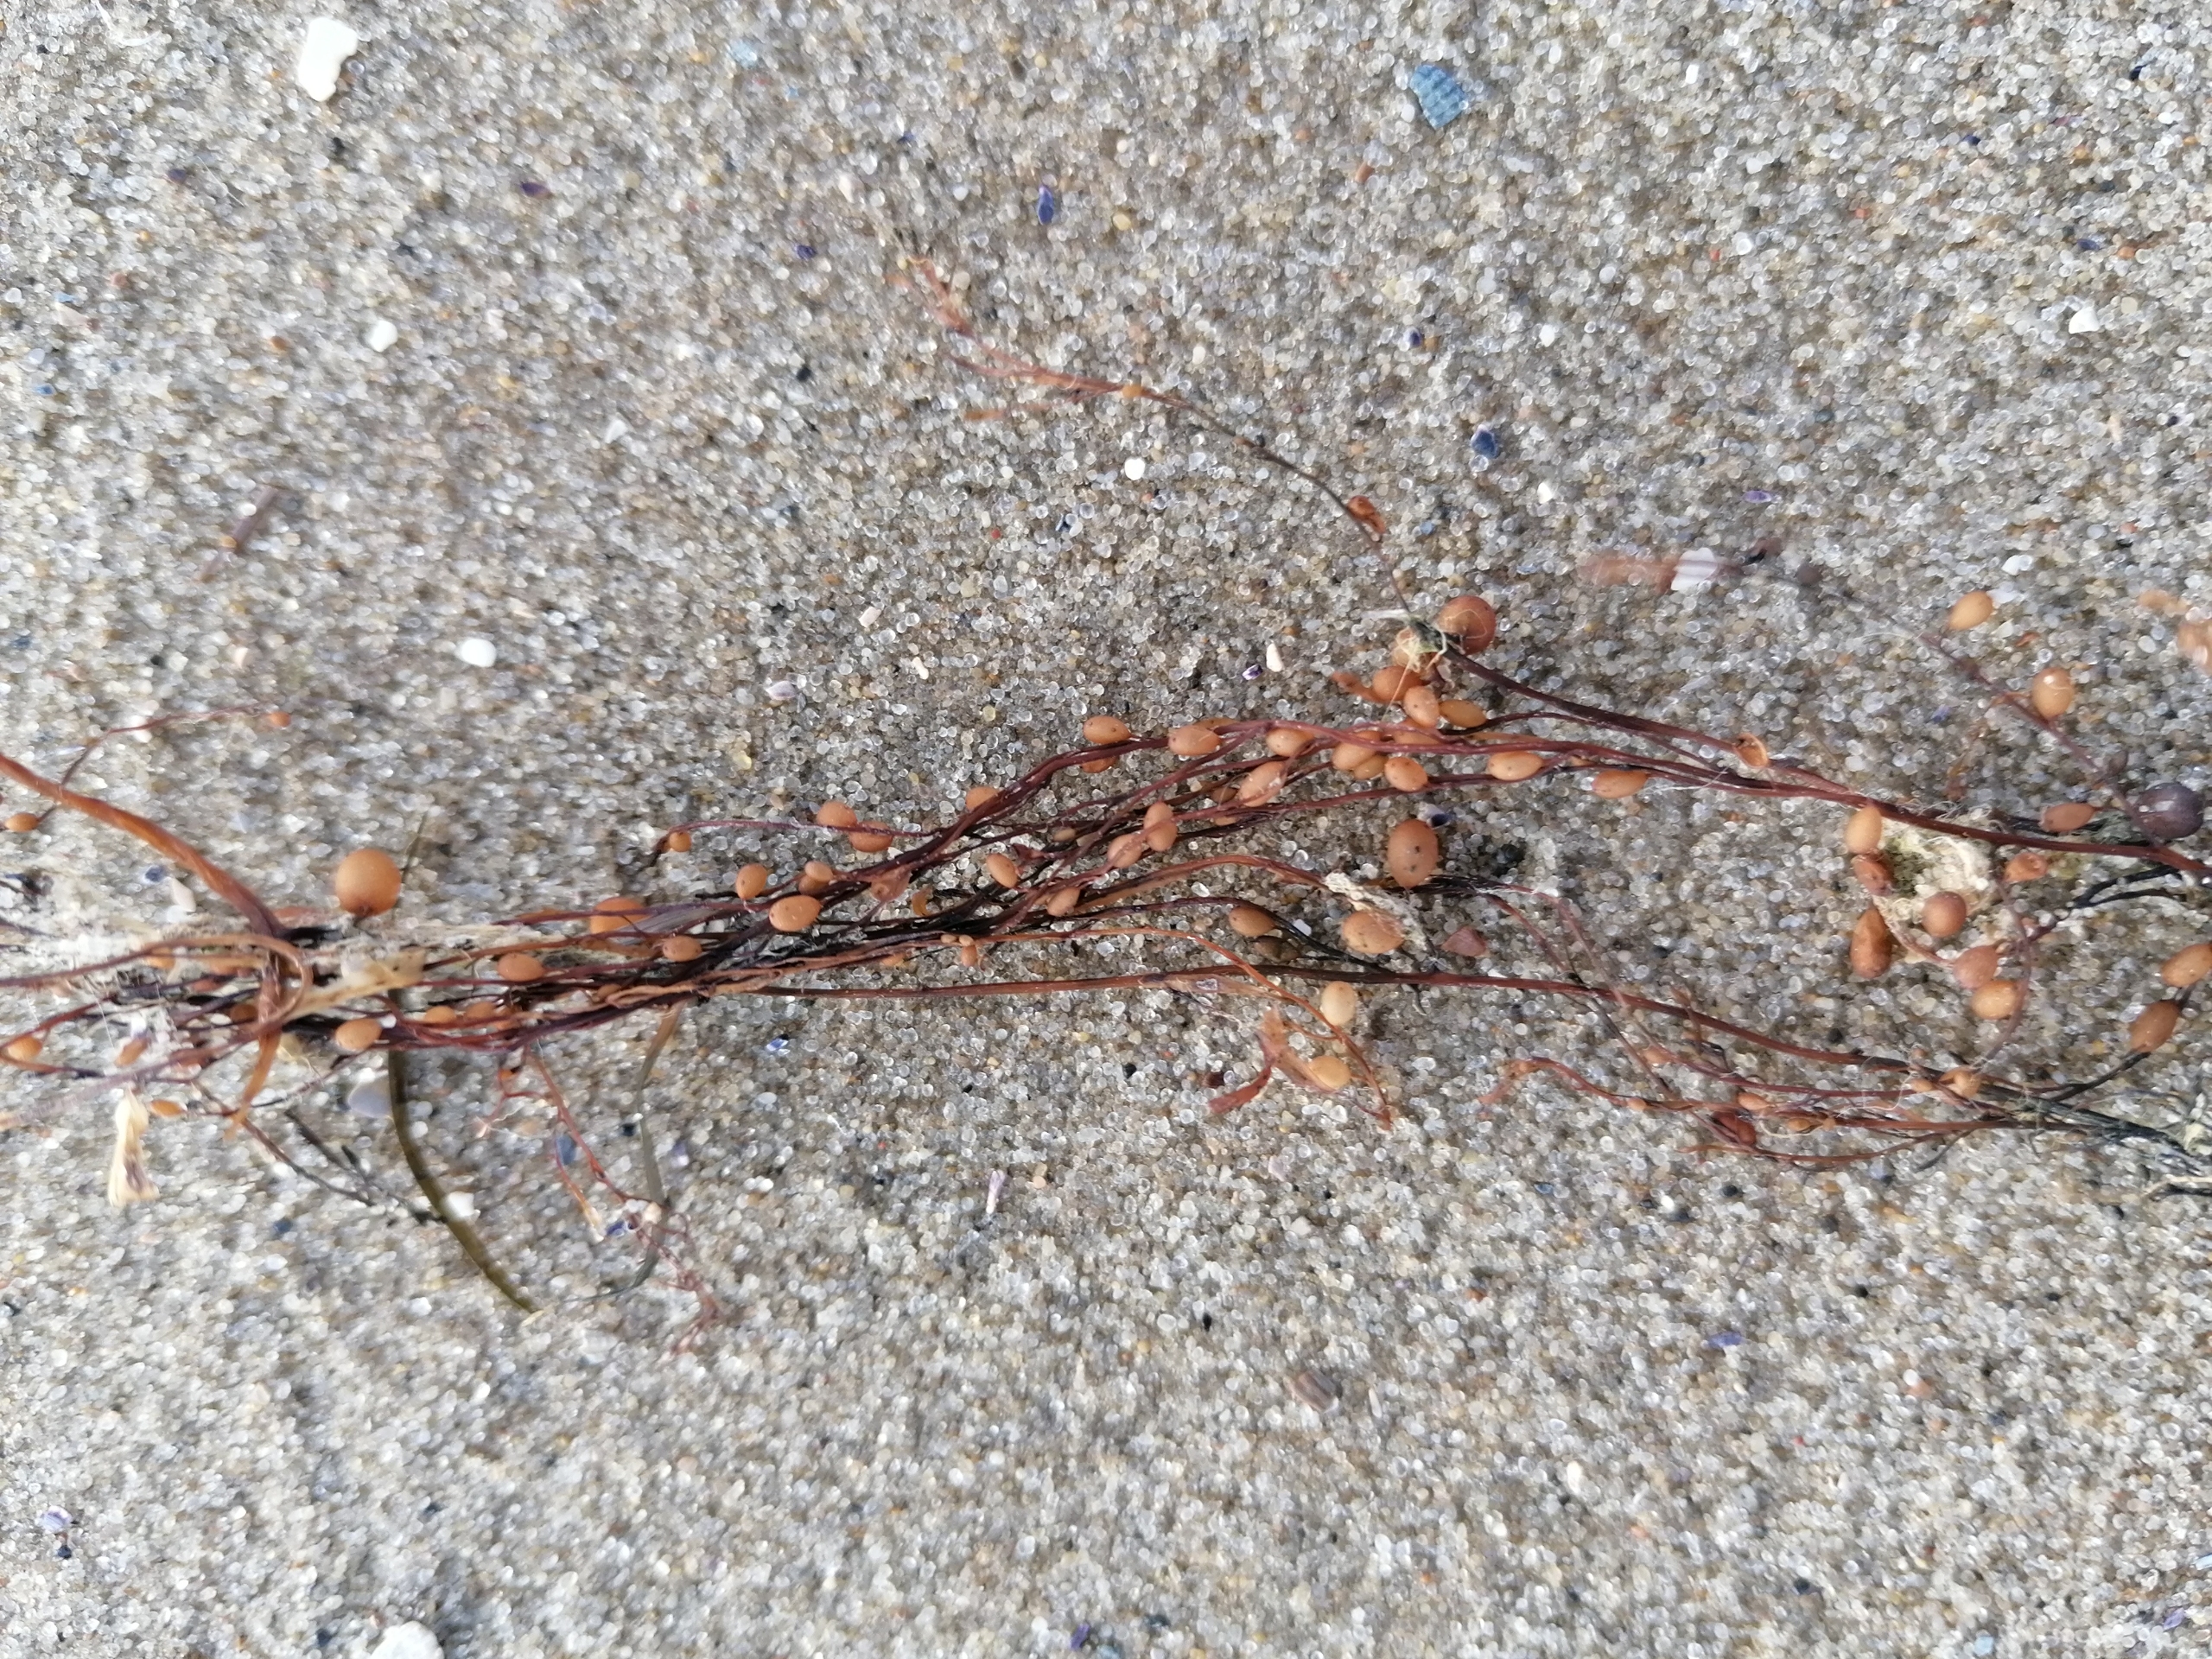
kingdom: Chromista
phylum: Ochrophyta
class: Phaeophyceae
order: Fucales
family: Sargassaceae
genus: Sargassum
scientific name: Sargassum
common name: Sargassum
